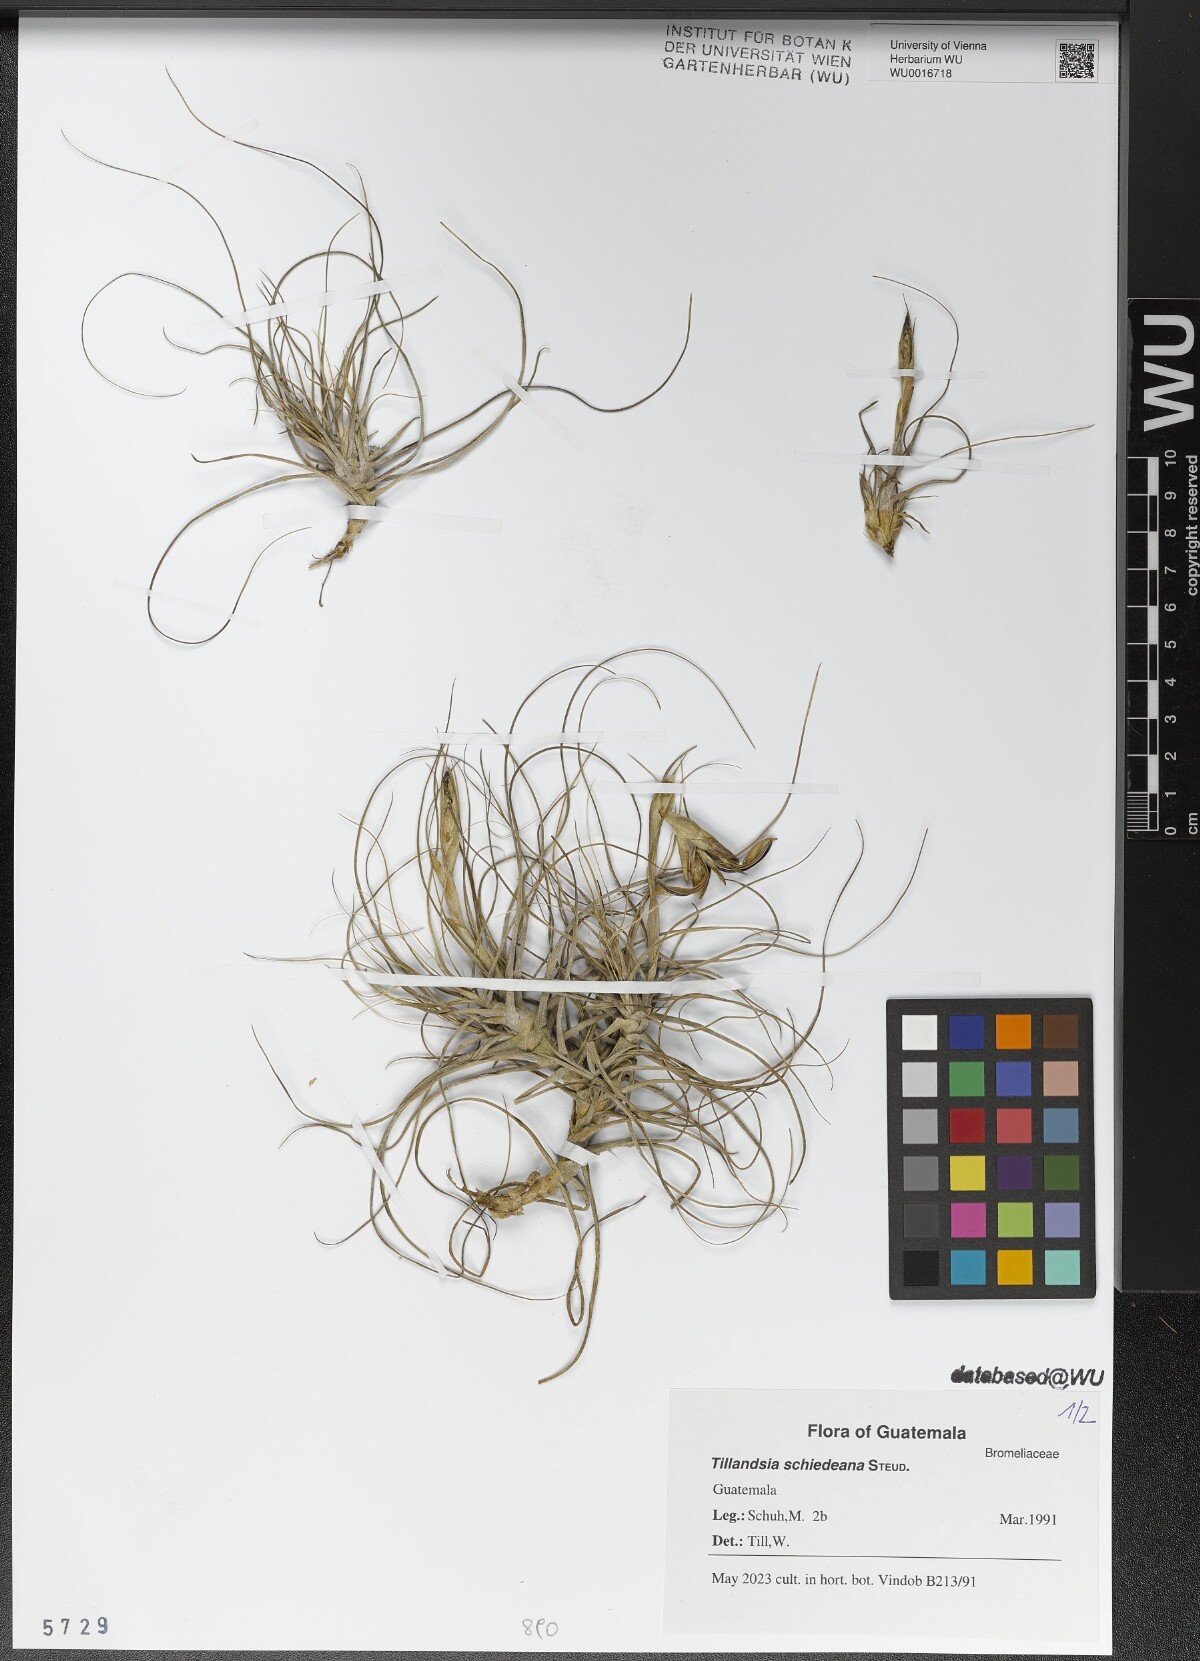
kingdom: Plantae
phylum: Tracheophyta
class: Liliopsida
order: Poales
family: Bromeliaceae
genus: Tillandsia
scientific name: Tillandsia schiedeana
